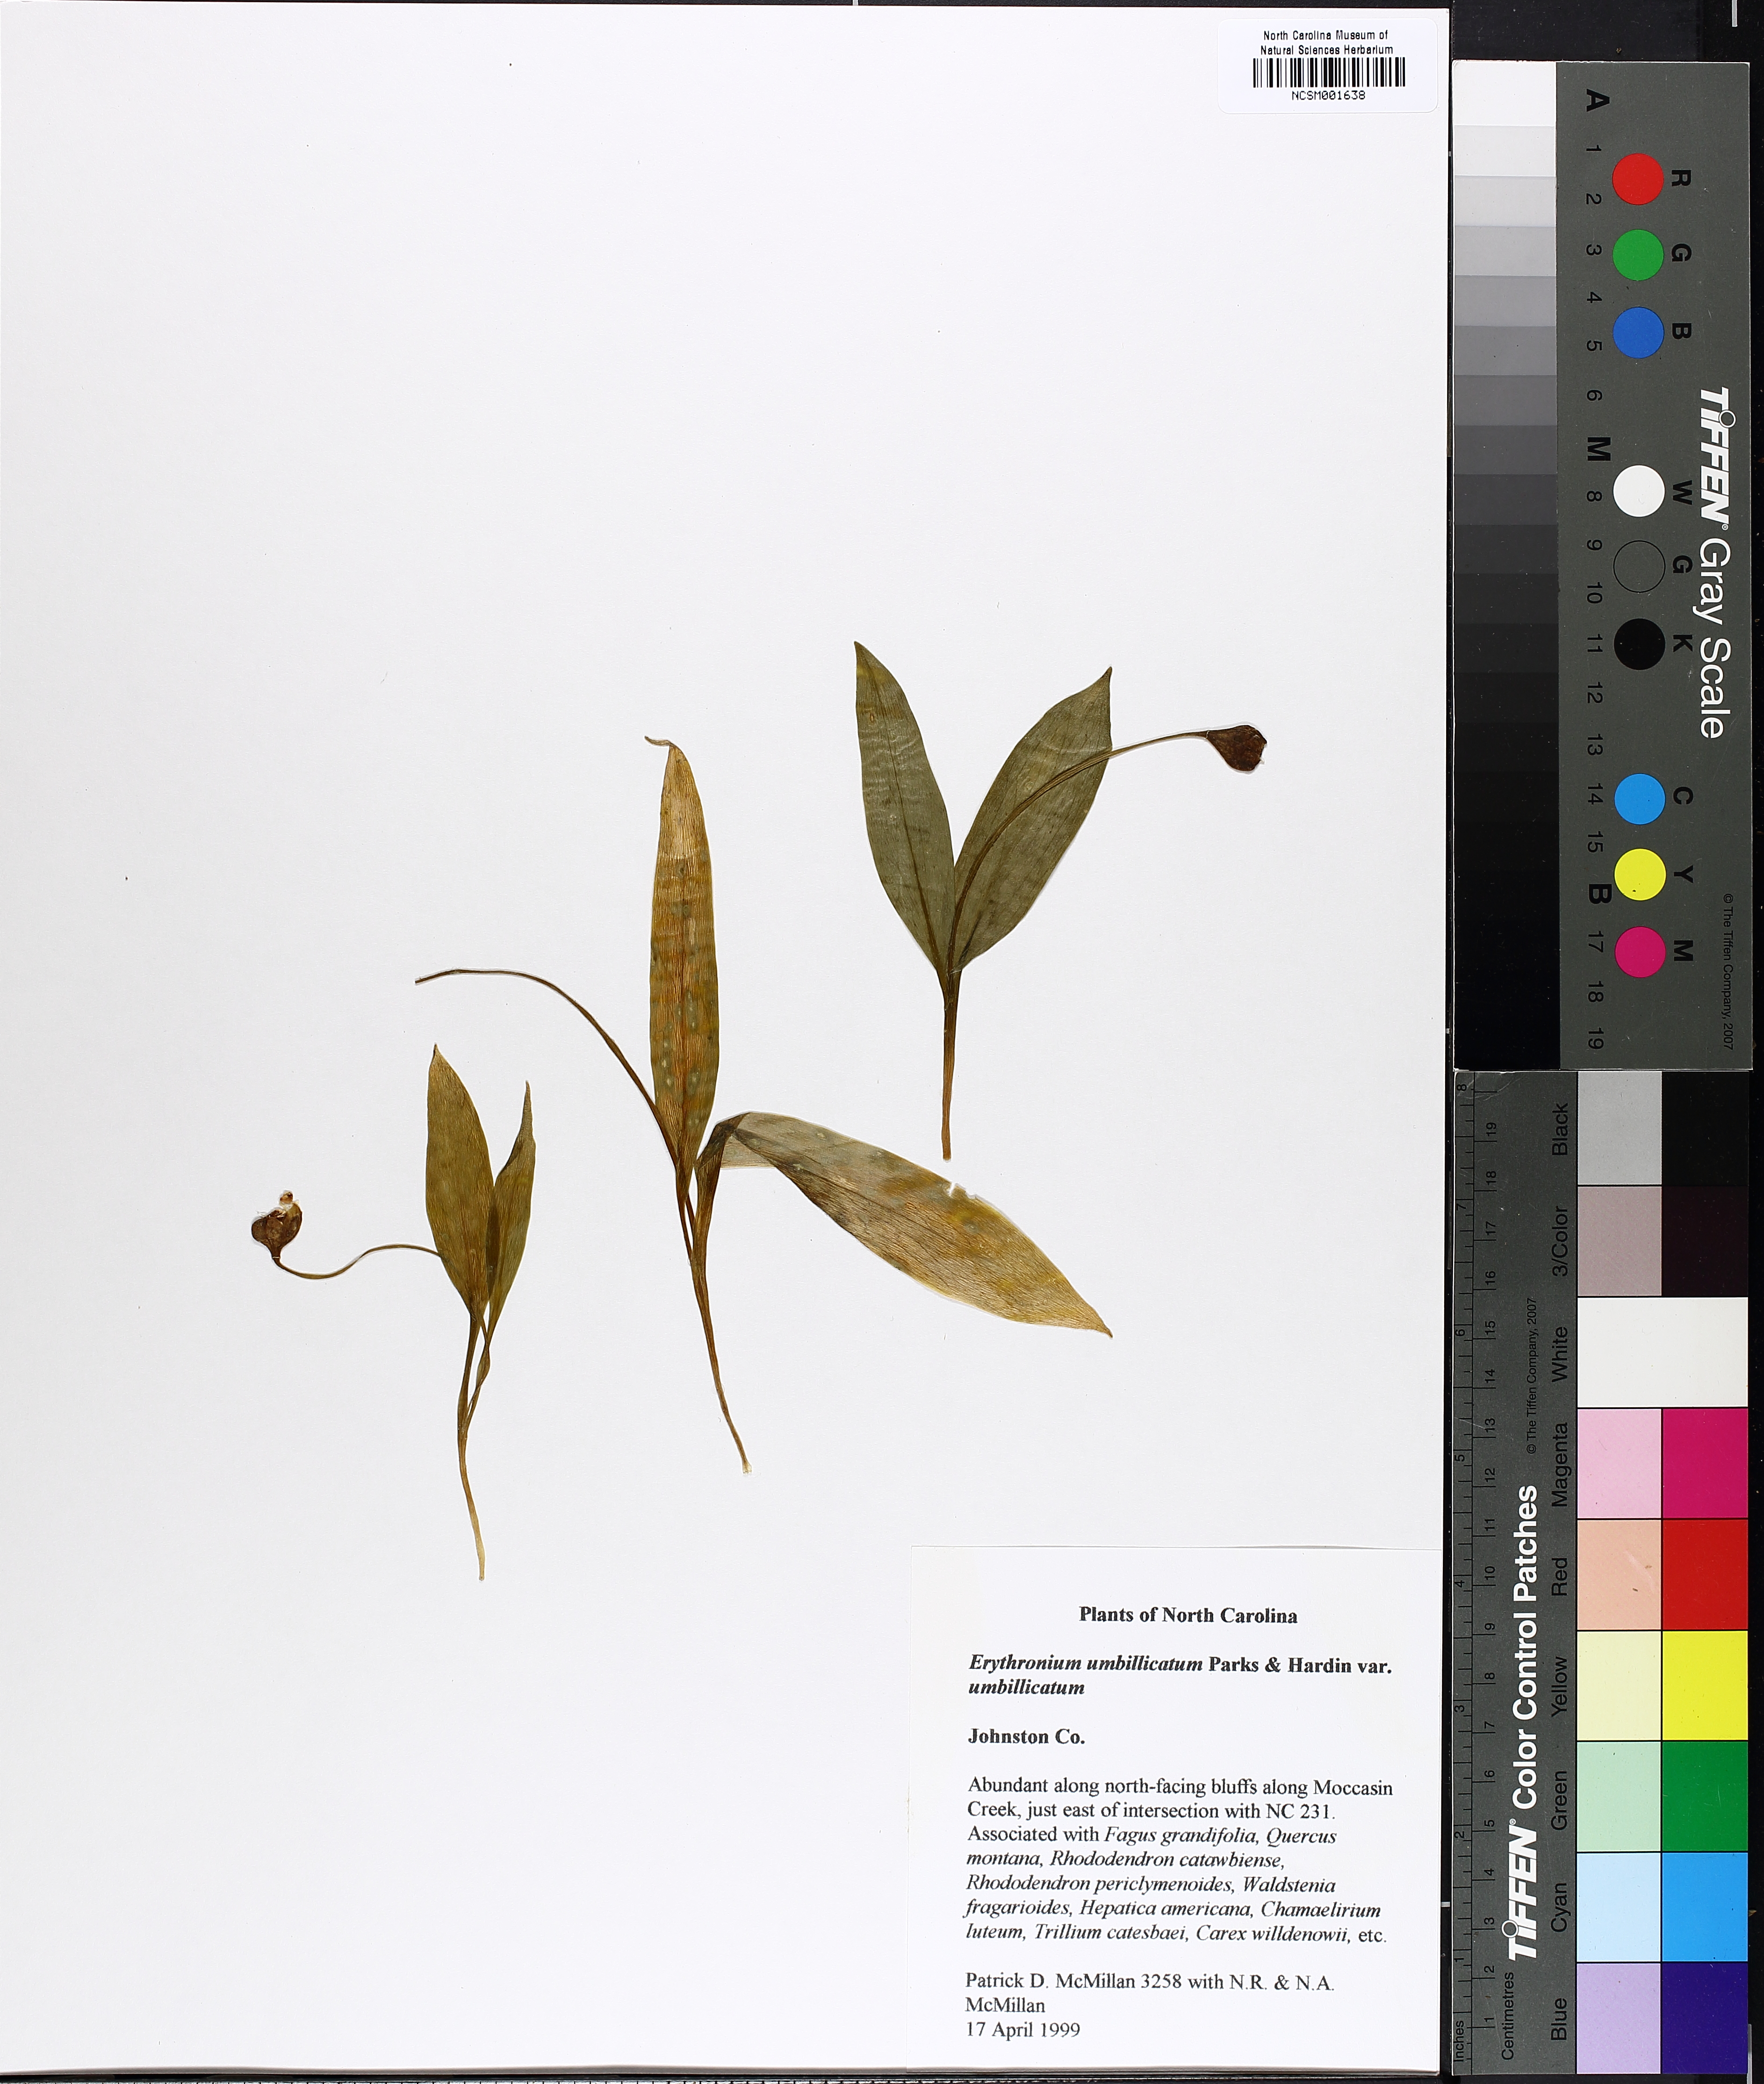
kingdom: Plantae
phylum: Tracheophyta
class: Liliopsida
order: Liliales
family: Liliaceae
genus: Erythronium
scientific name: Erythronium umbilicatum
